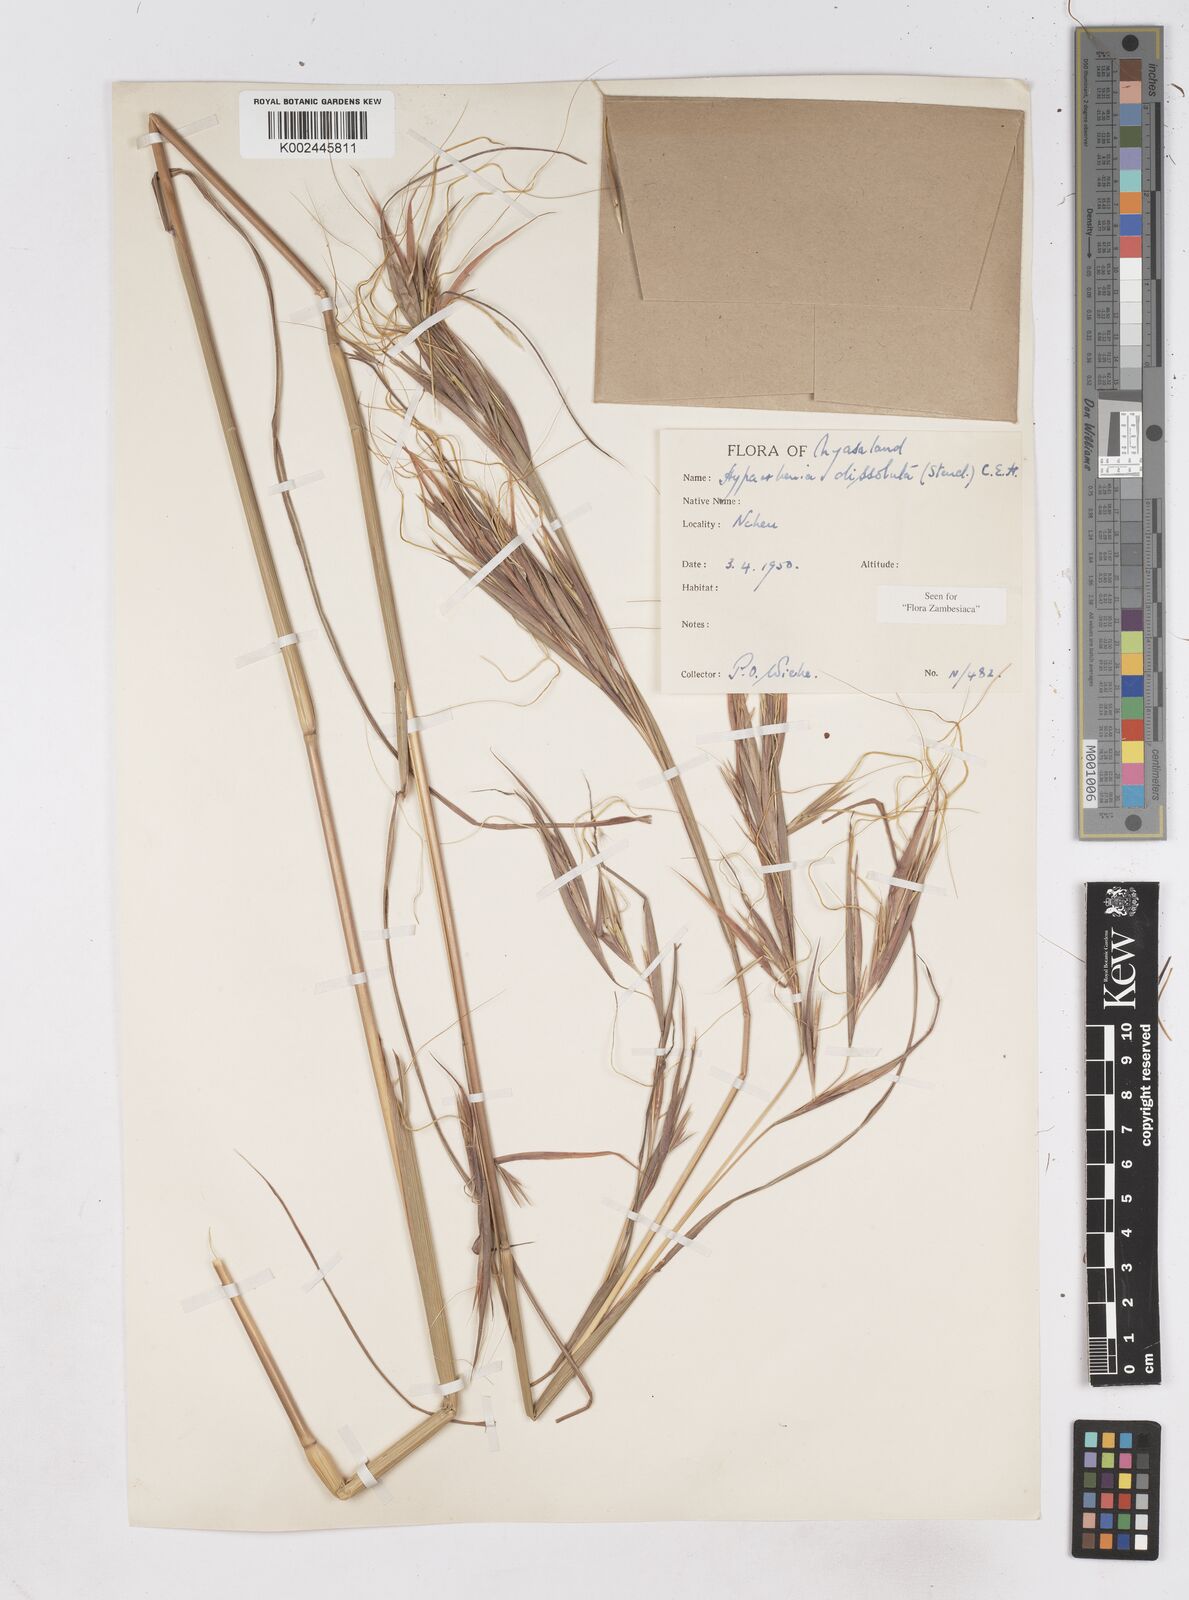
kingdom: Plantae
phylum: Tracheophyta
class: Liliopsida
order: Poales
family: Poaceae
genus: Hyperthelia
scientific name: Hyperthelia dissoluta
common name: Yellow thatching grass
